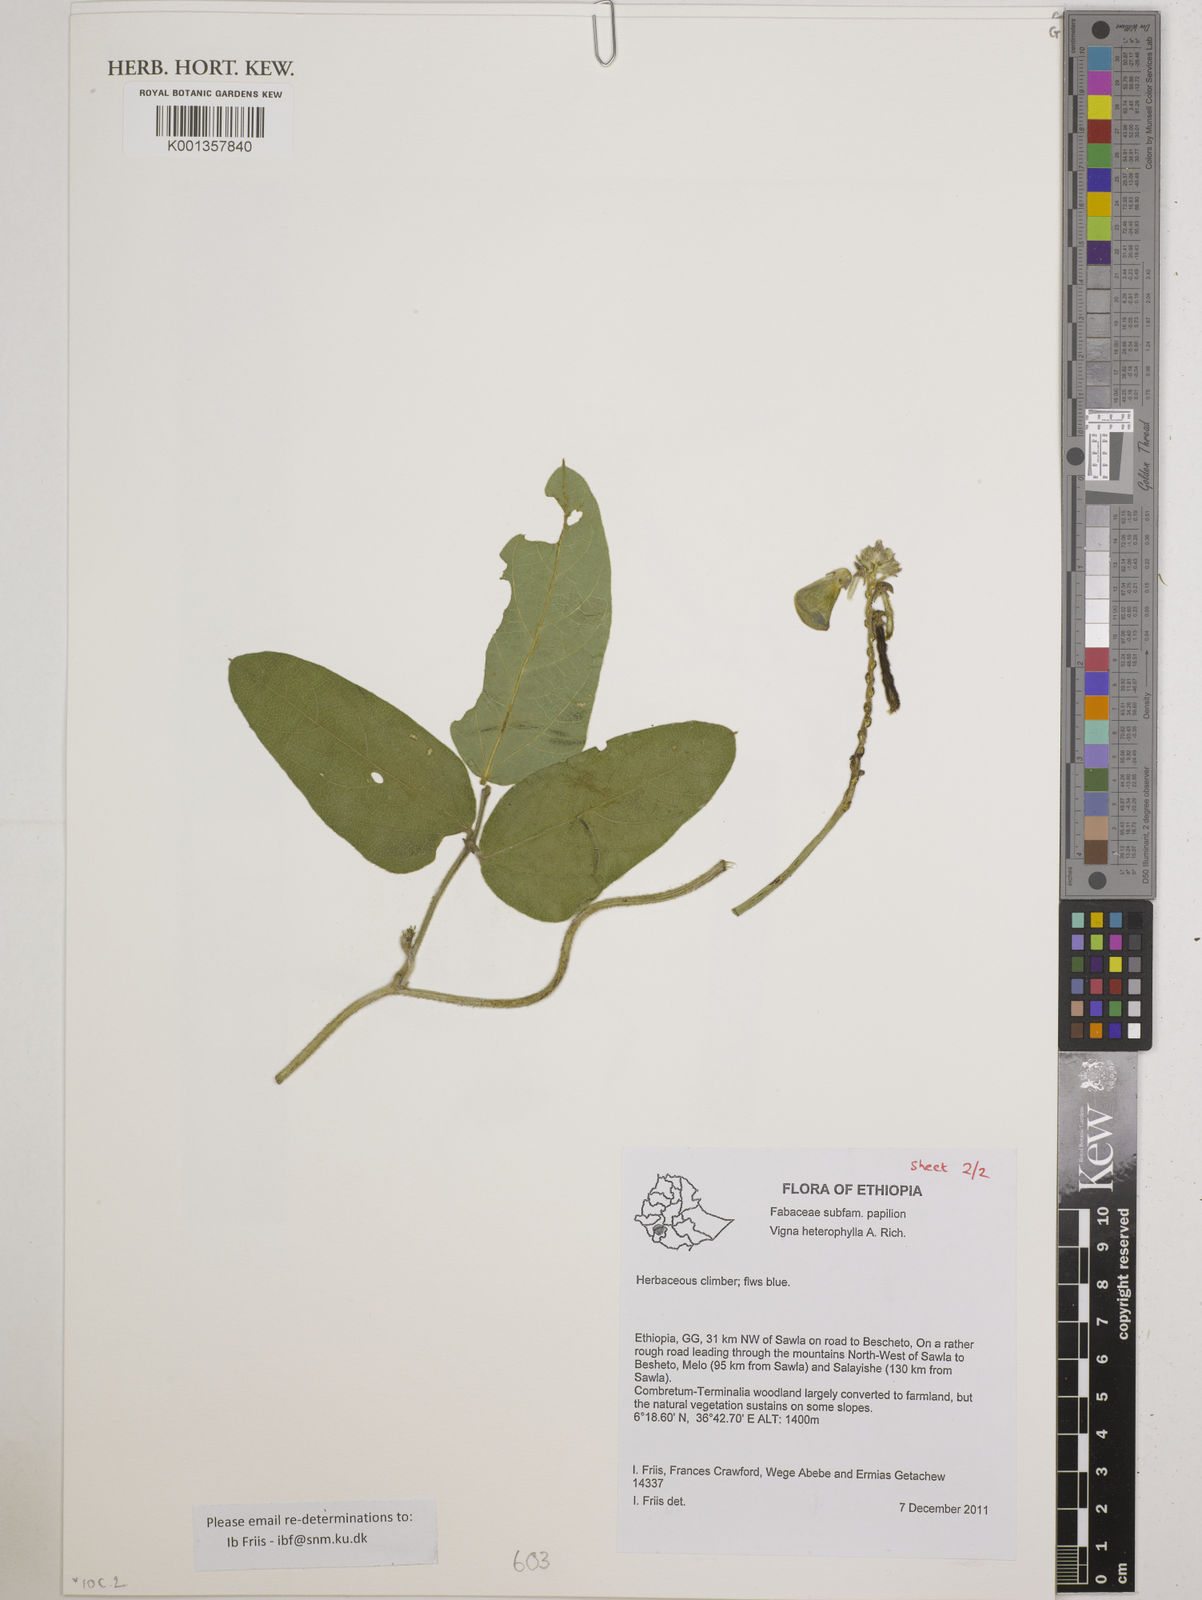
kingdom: Plantae
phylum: Tracheophyta
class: Magnoliopsida
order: Fabales
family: Fabaceae
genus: Vigna
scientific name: Vigna heterophylla
